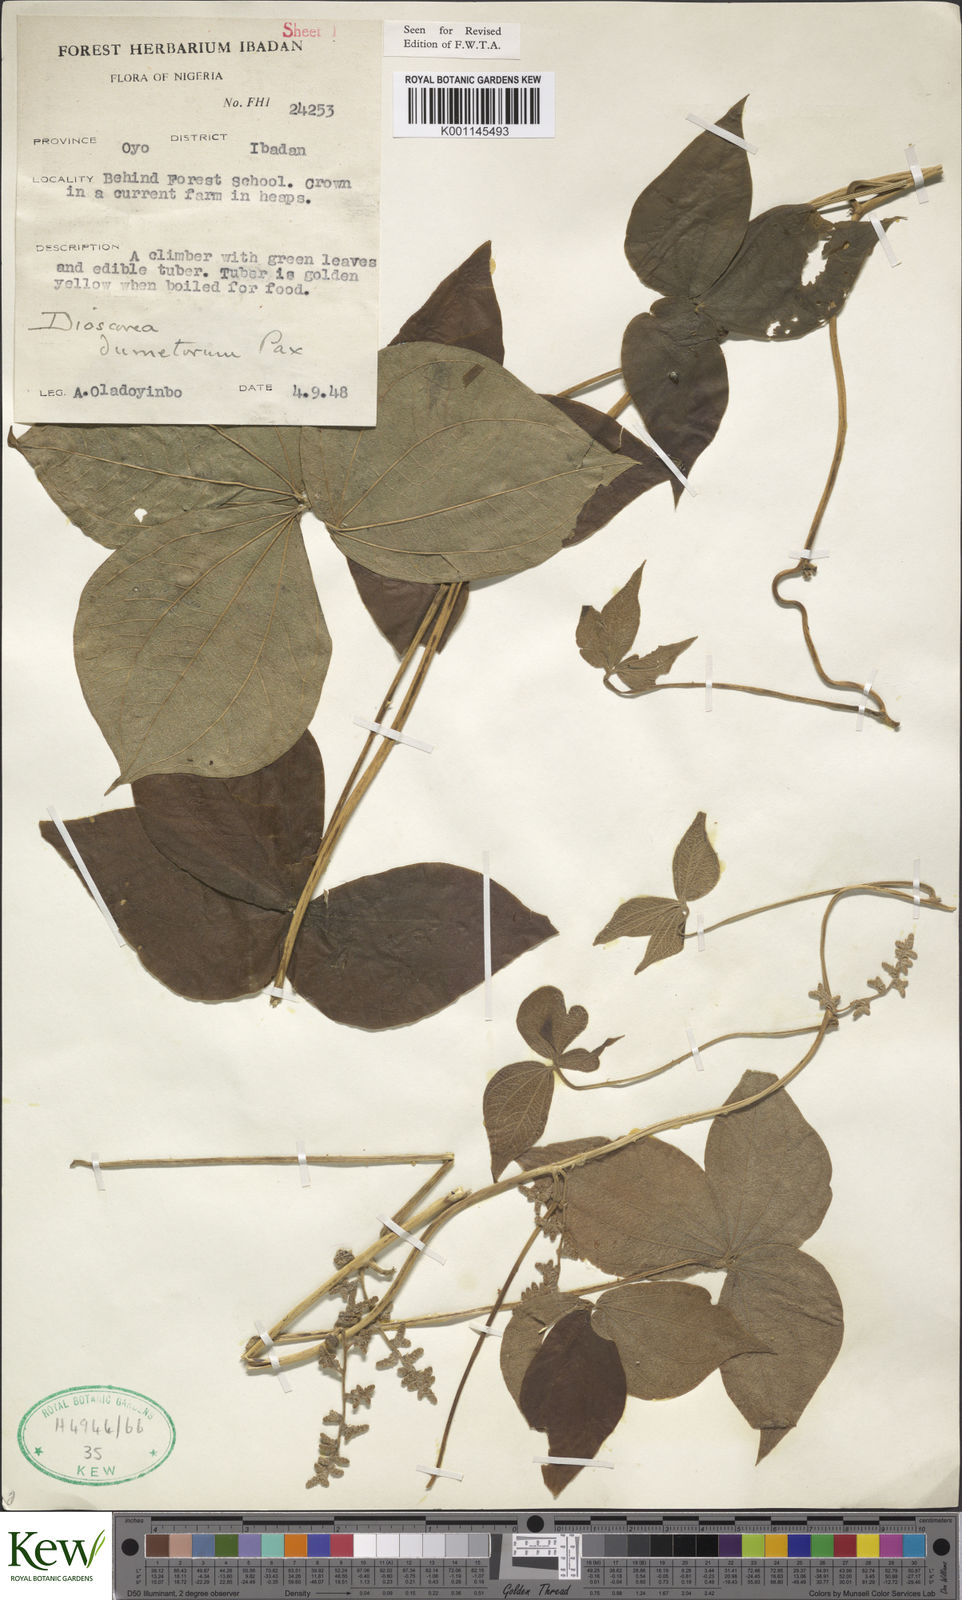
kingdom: Plantae
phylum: Tracheophyta
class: Liliopsida
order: Dioscoreales
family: Dioscoreaceae
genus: Dioscorea
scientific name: Dioscorea dumetorum
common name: African bitter yam
